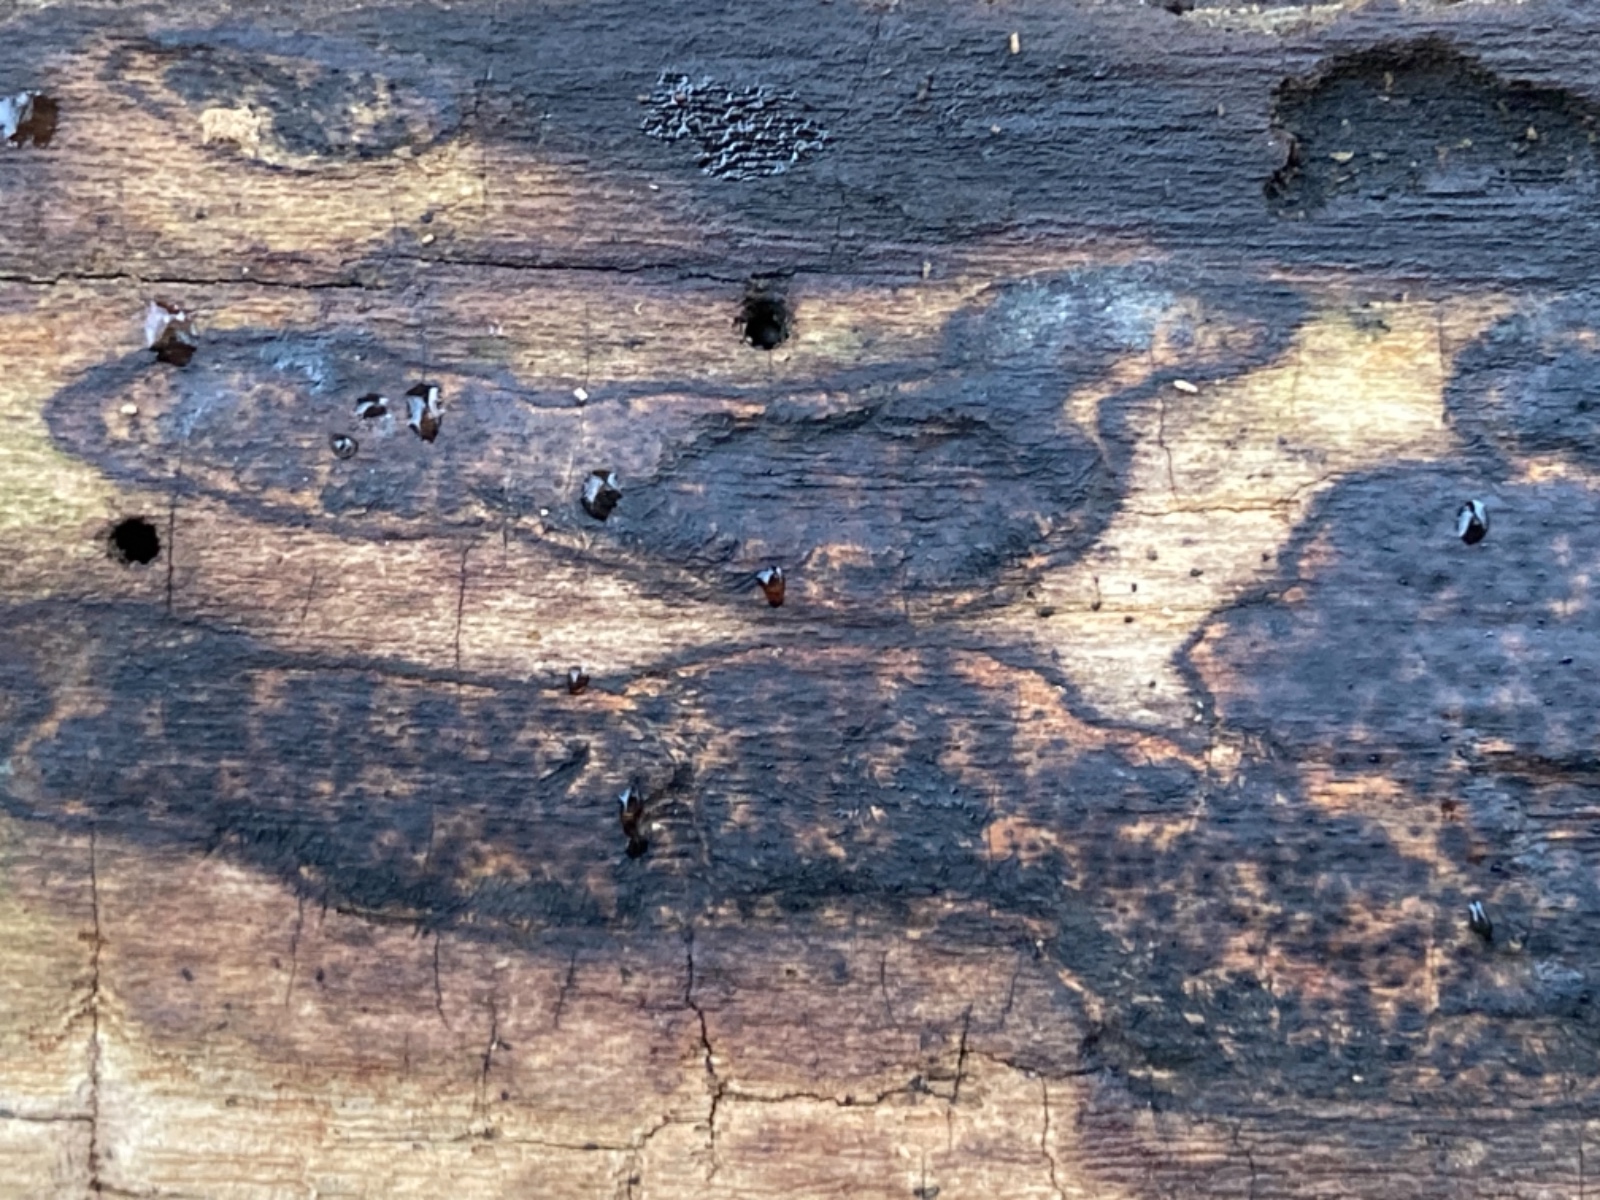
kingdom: Fungi
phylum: Ascomycota
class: Sordariomycetes
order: Xylariales
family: Lopadostomataceae
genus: Lopadostoma
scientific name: Lopadostoma pouzarii
